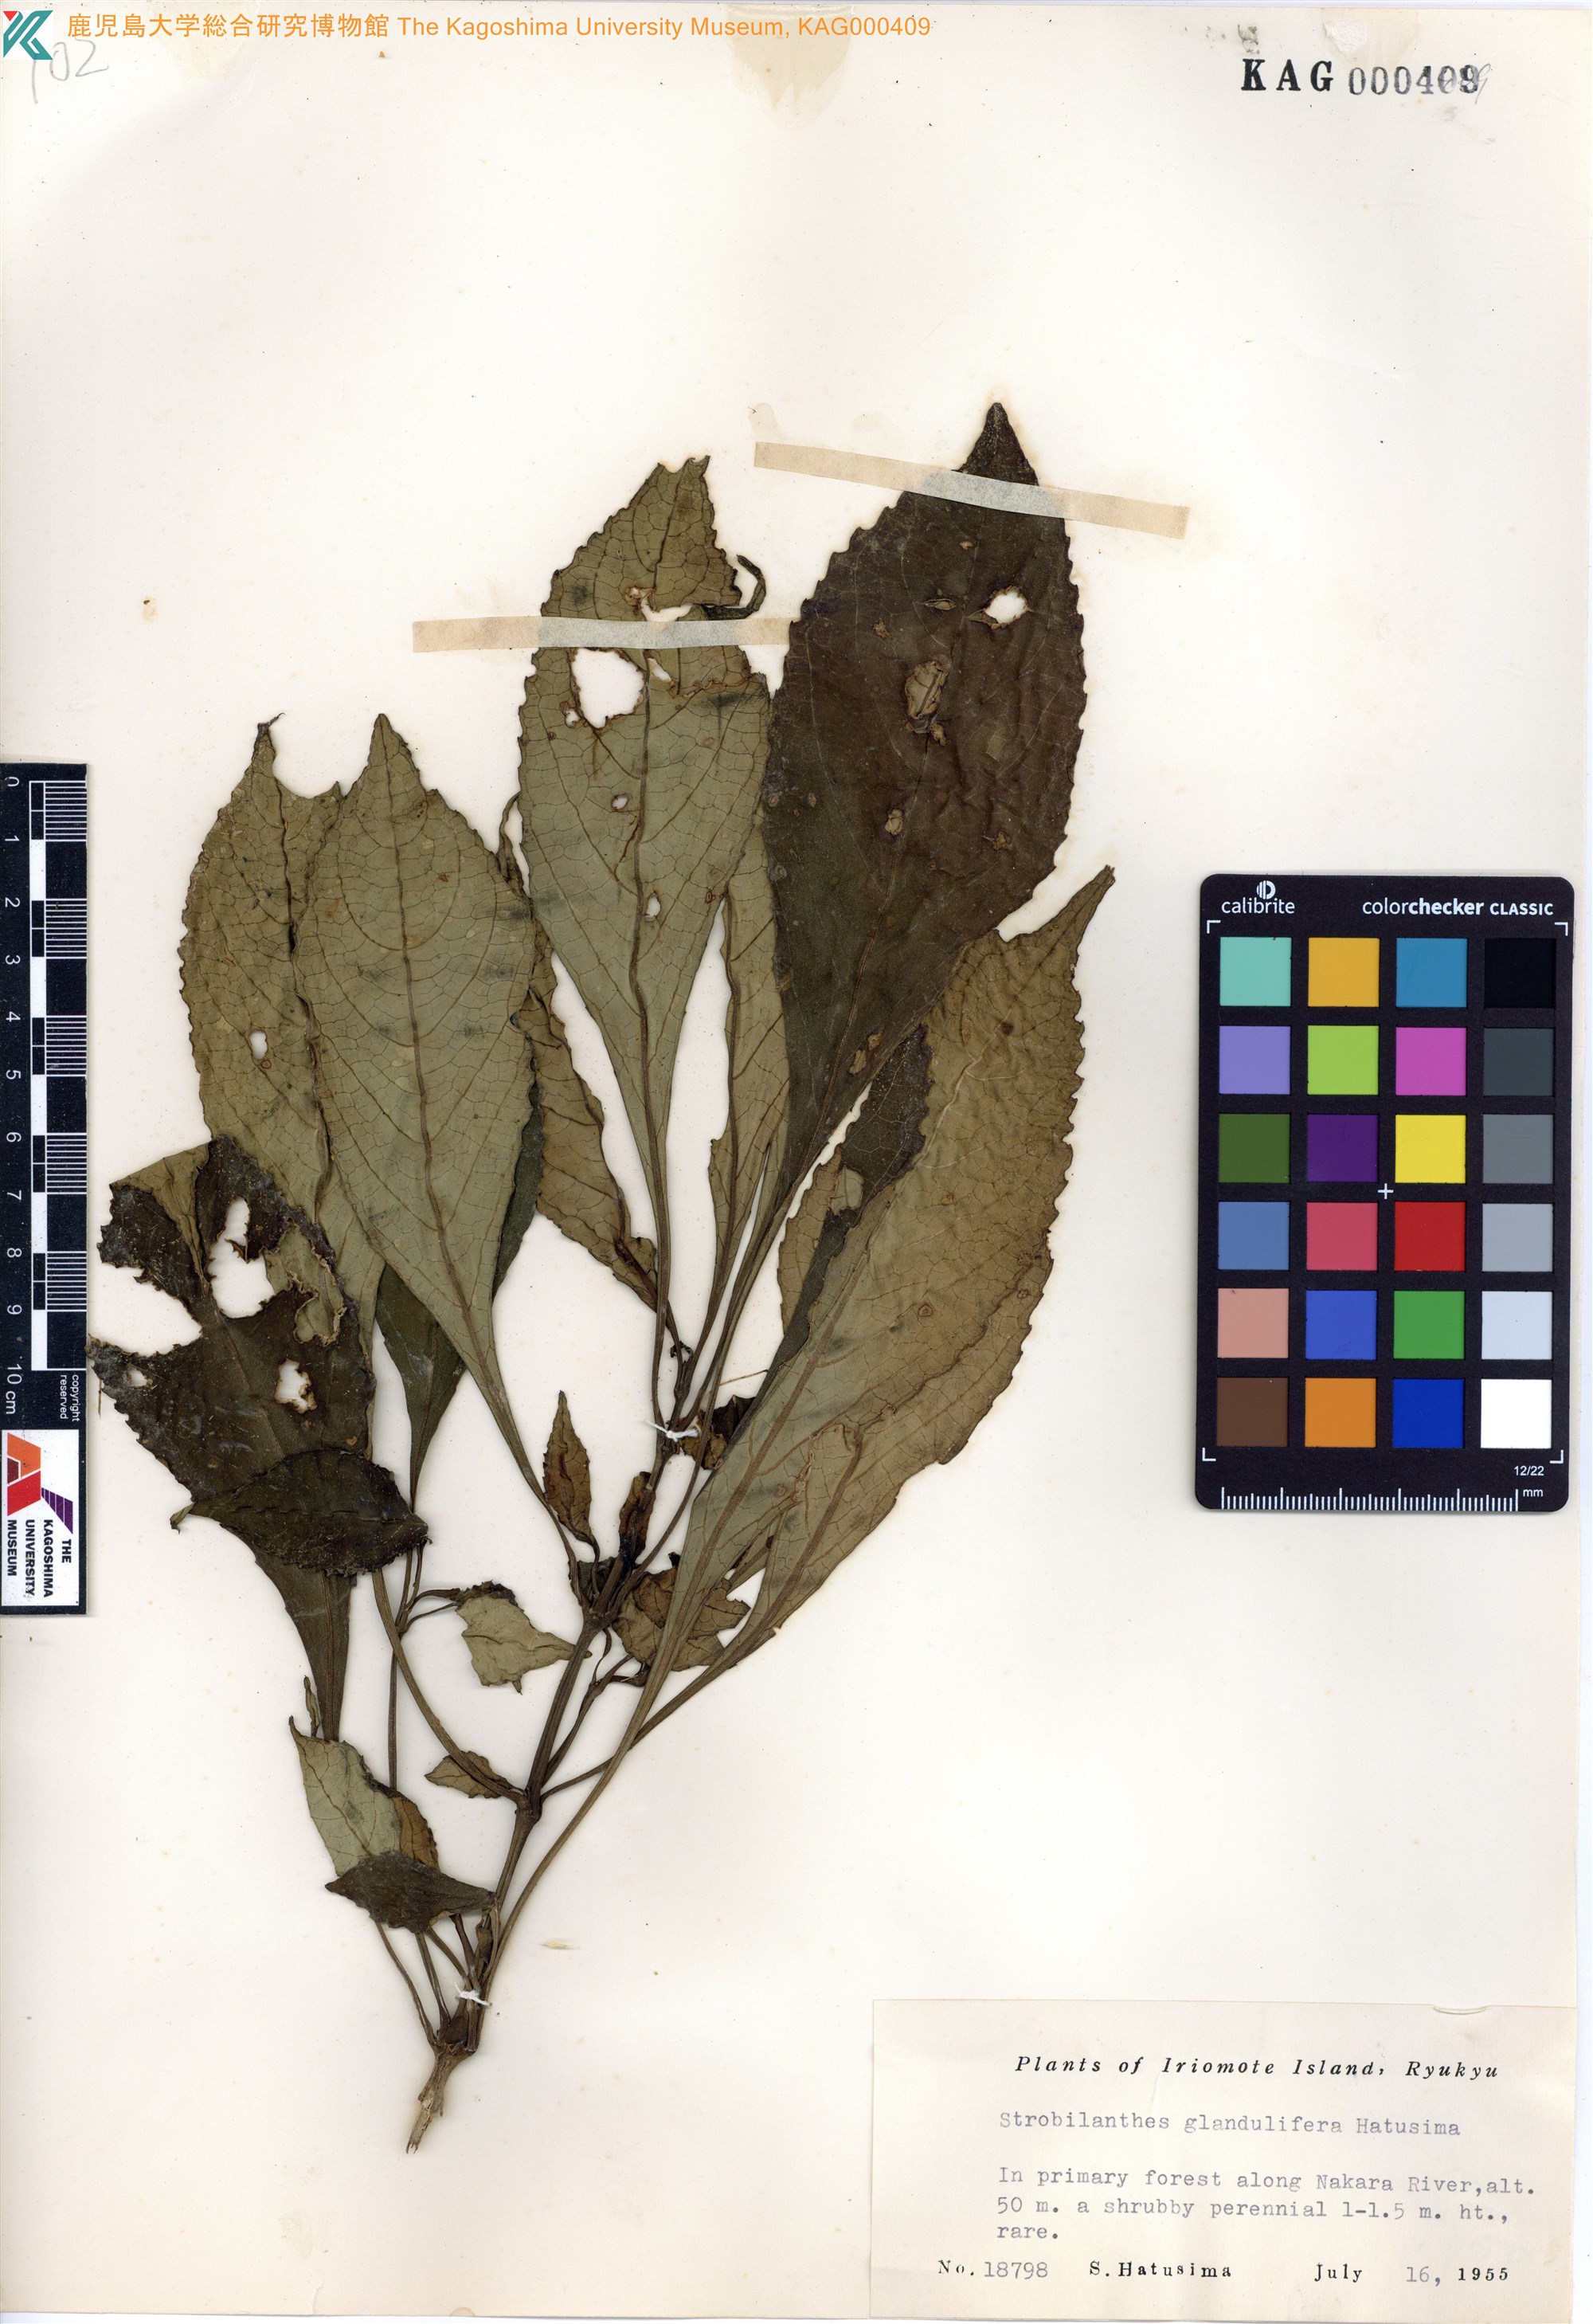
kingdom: Plantae
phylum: Tracheophyta
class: Magnoliopsida
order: Lamiales
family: Acanthaceae
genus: Strobilanthes
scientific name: Strobilanthes flexicaulis
